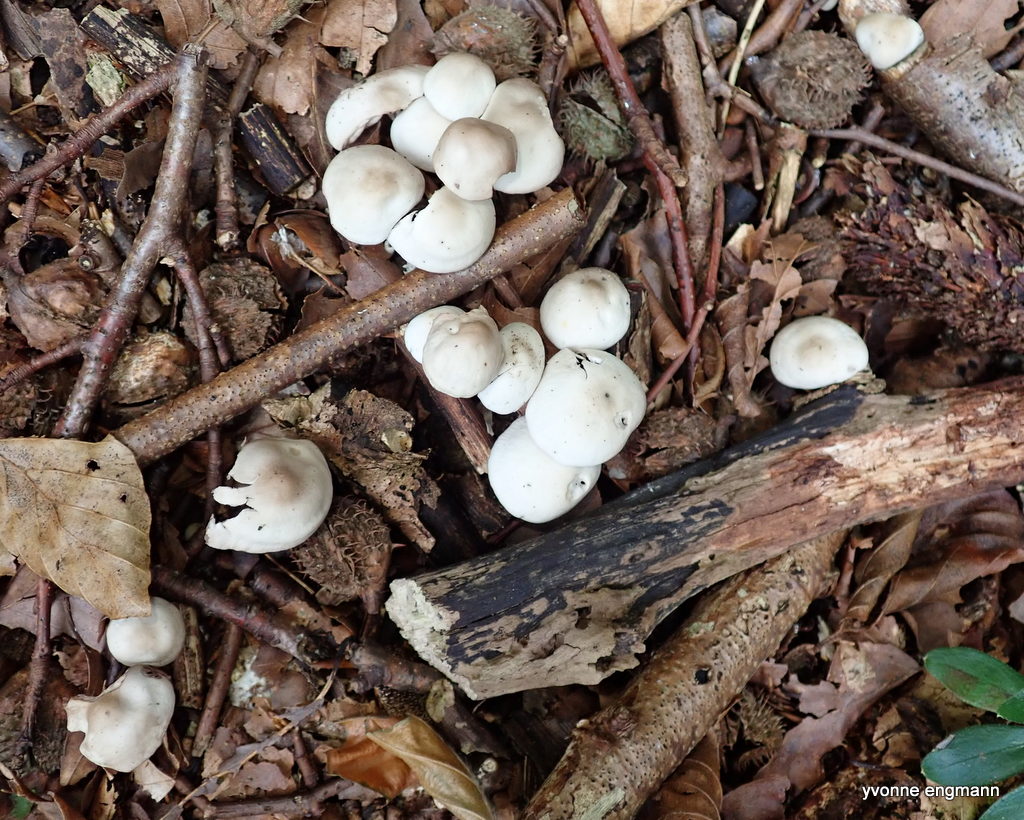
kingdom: Fungi
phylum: Basidiomycota
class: Agaricomycetes
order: Agaricales
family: Marasmiaceae
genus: Marasmius
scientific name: Marasmius wynneae
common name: hvælvet bruskhat
